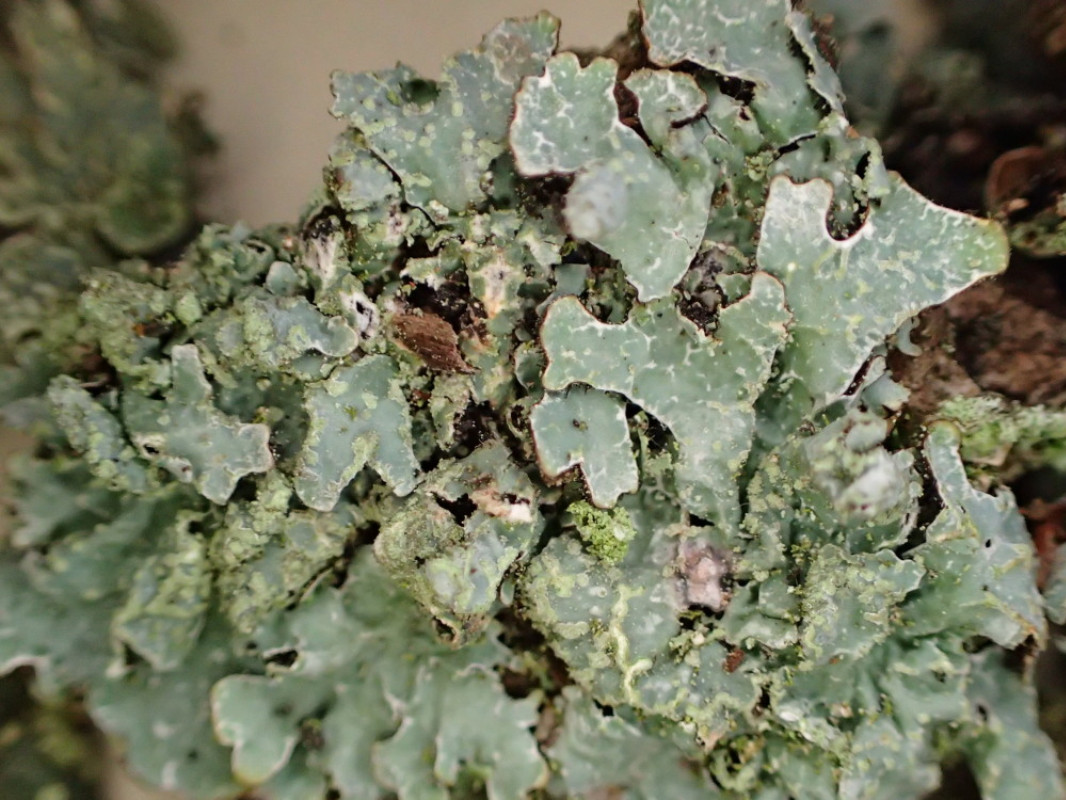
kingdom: Fungi
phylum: Ascomycota
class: Lecanoromycetes
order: Lecanorales
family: Parmeliaceae
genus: Parmelia
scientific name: Parmelia sulcata
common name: rynket skållav
